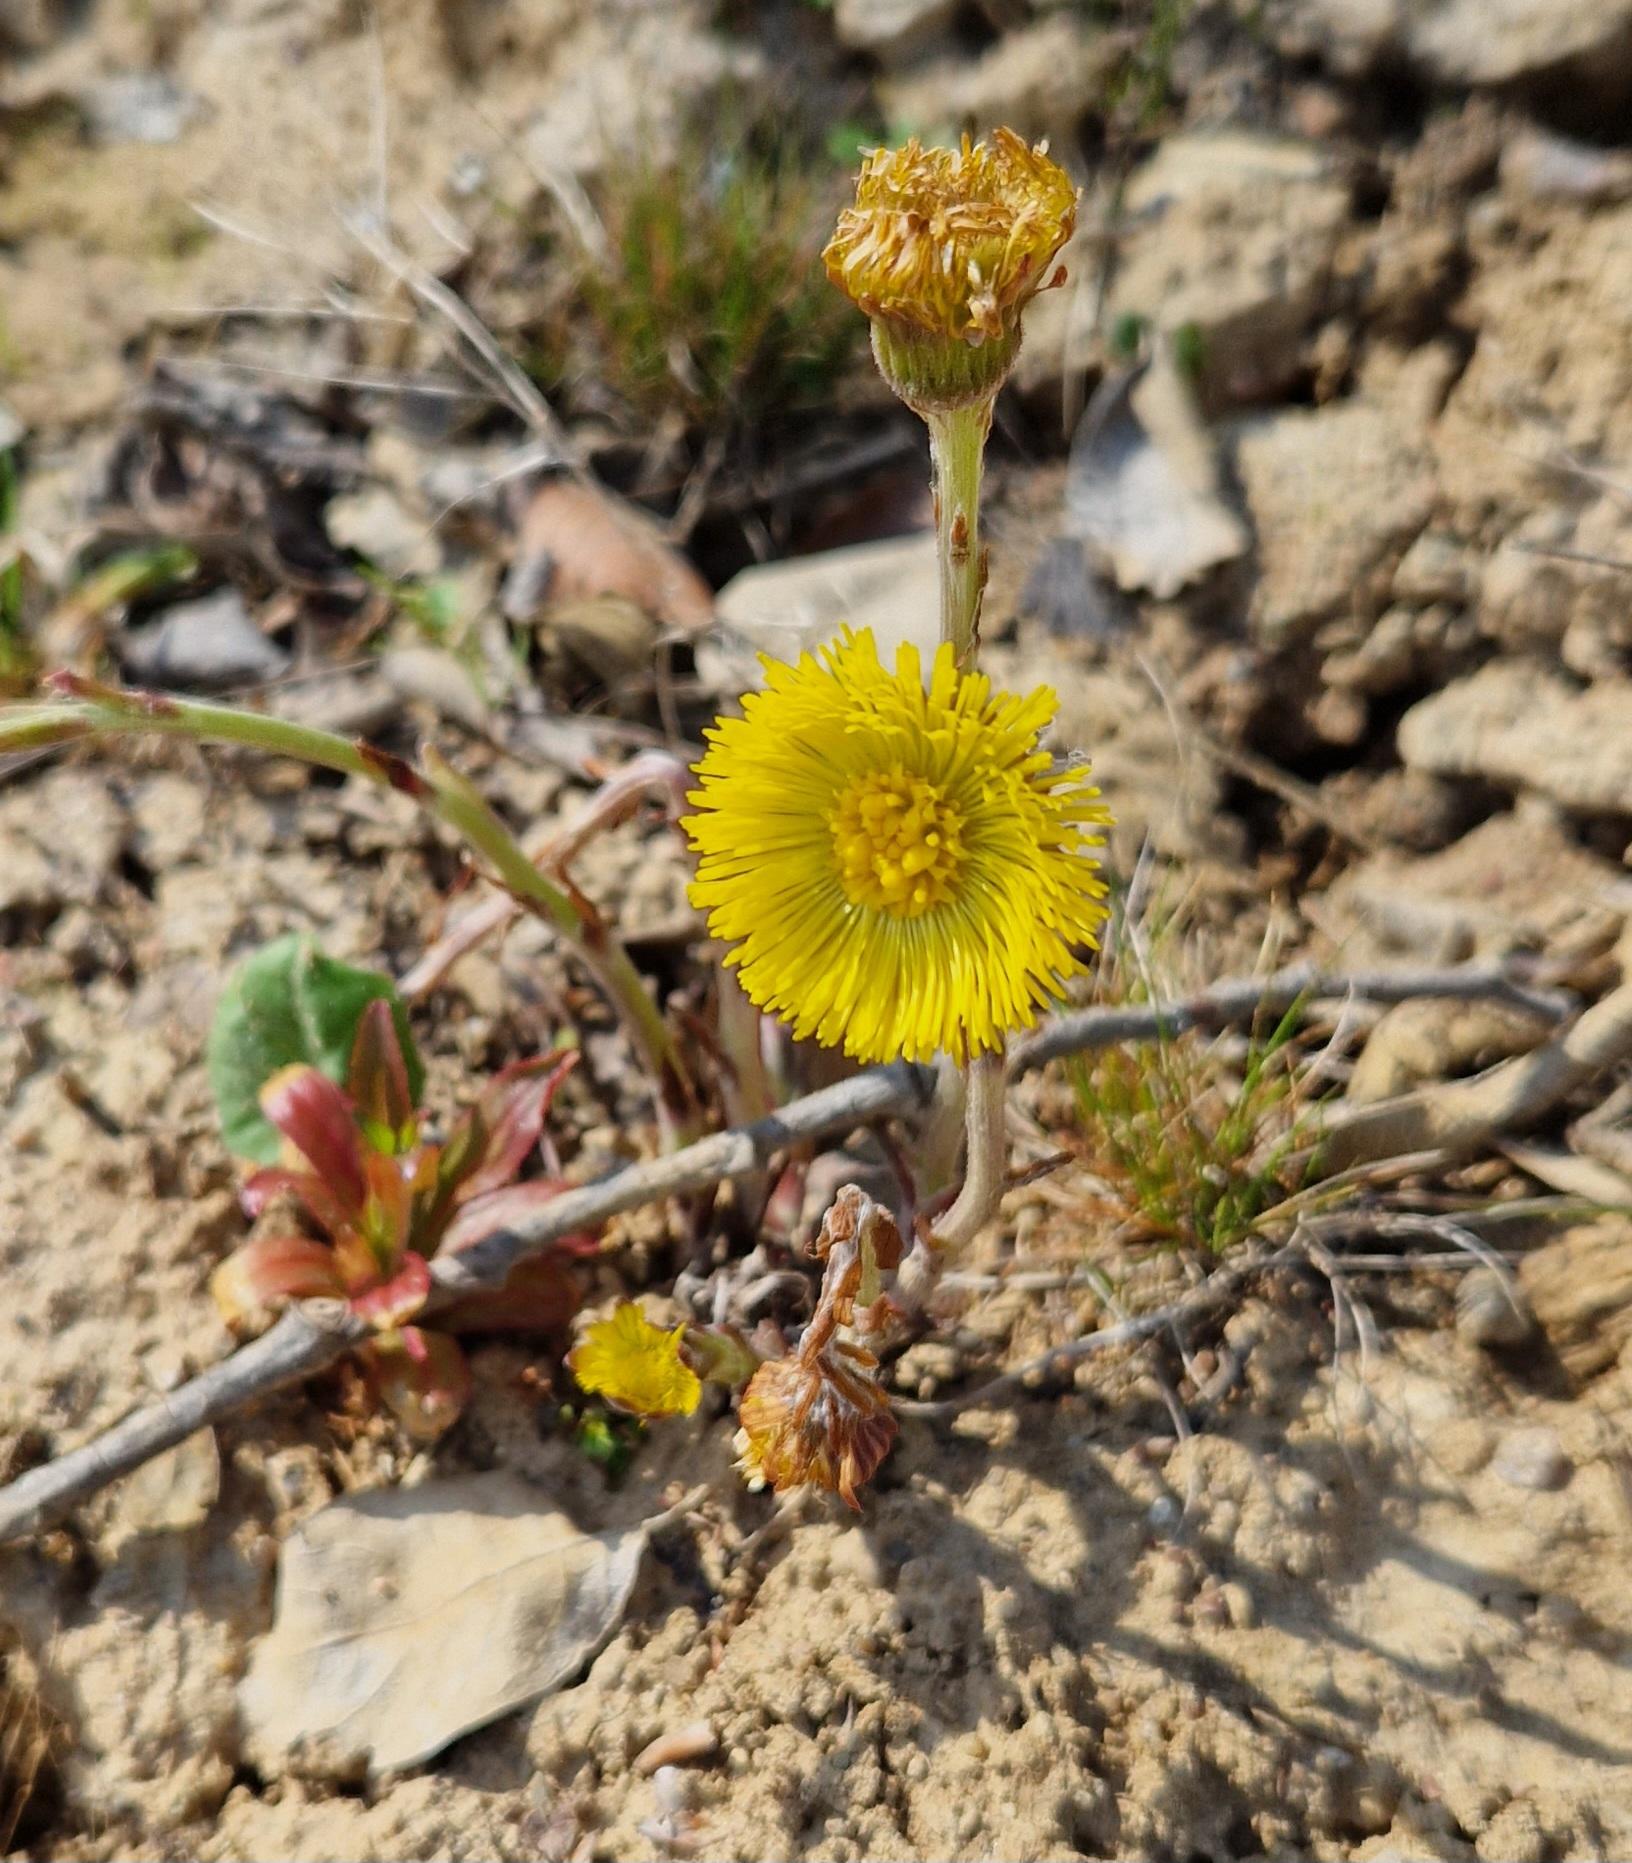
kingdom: Plantae
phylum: Tracheophyta
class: Magnoliopsida
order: Asterales
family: Asteraceae
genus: Tussilago
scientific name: Tussilago farfara
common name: Følfod
